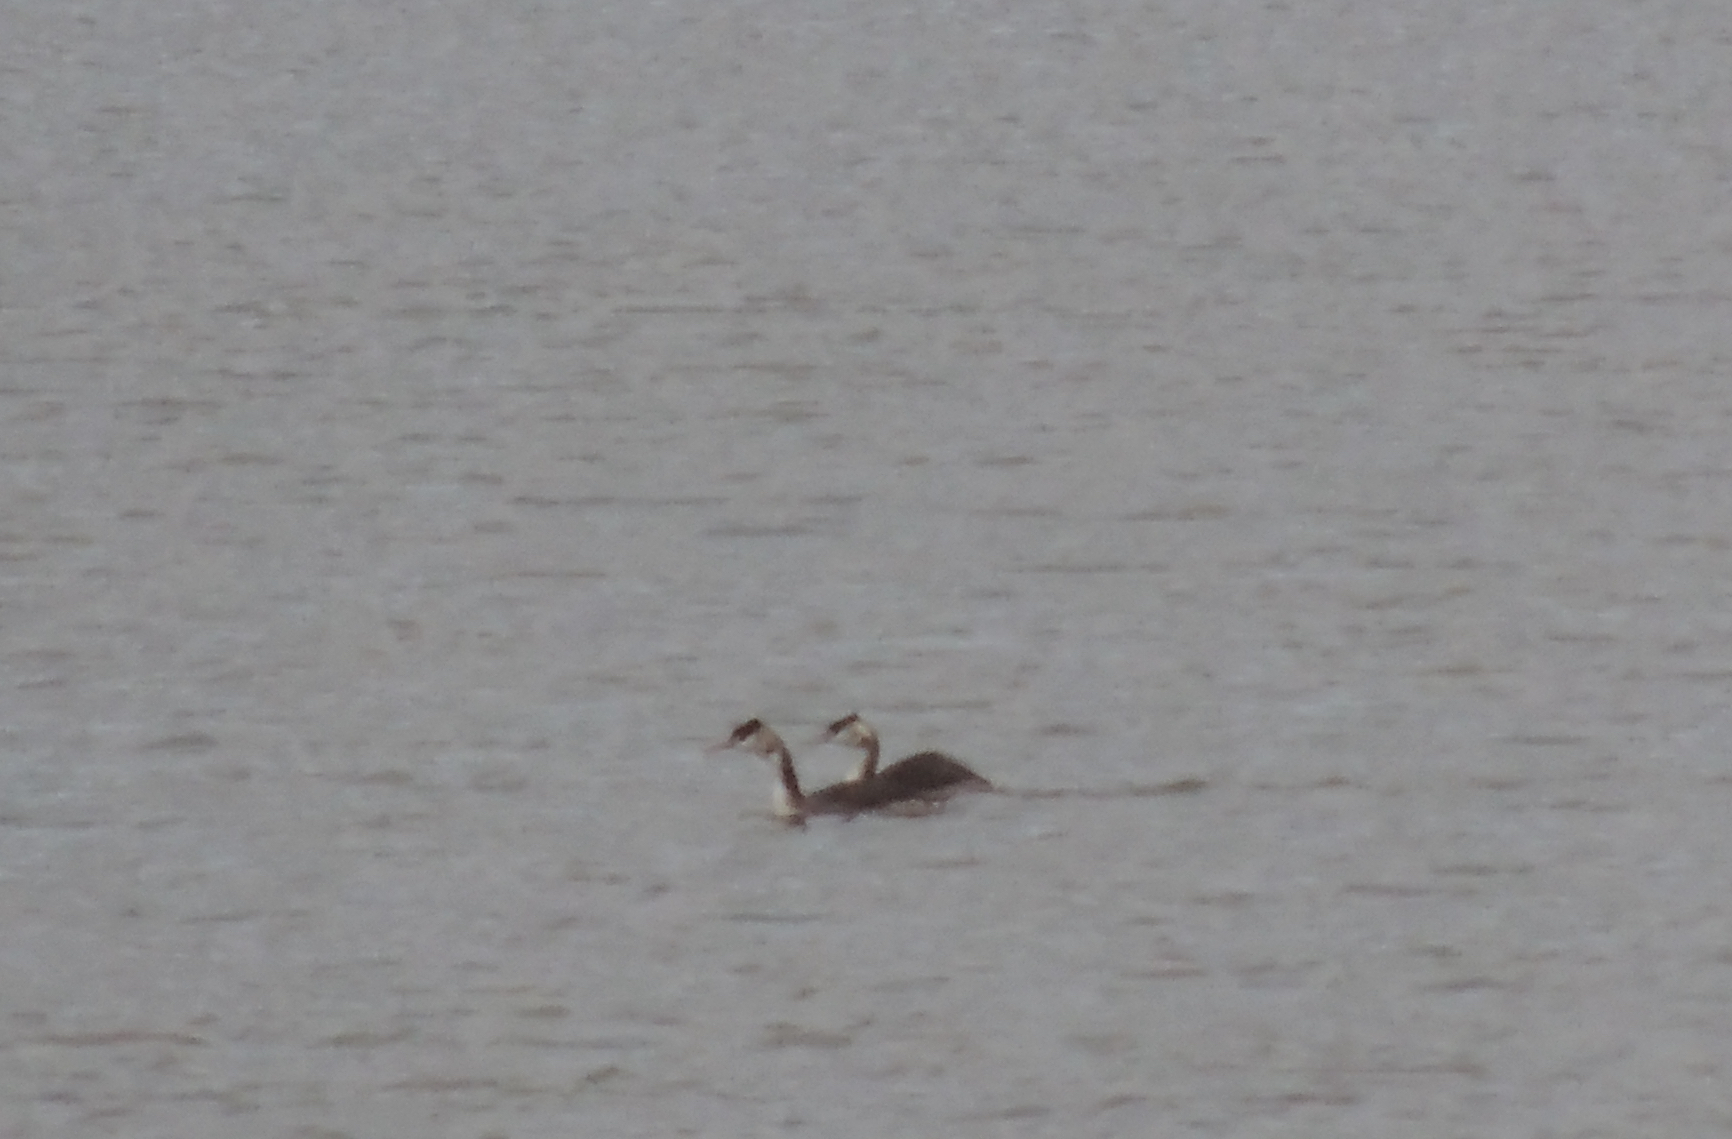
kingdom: Animalia
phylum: Chordata
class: Aves
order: Podicipediformes
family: Podicipedidae
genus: Podiceps
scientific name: Podiceps cristatus
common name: Great crested grebe
